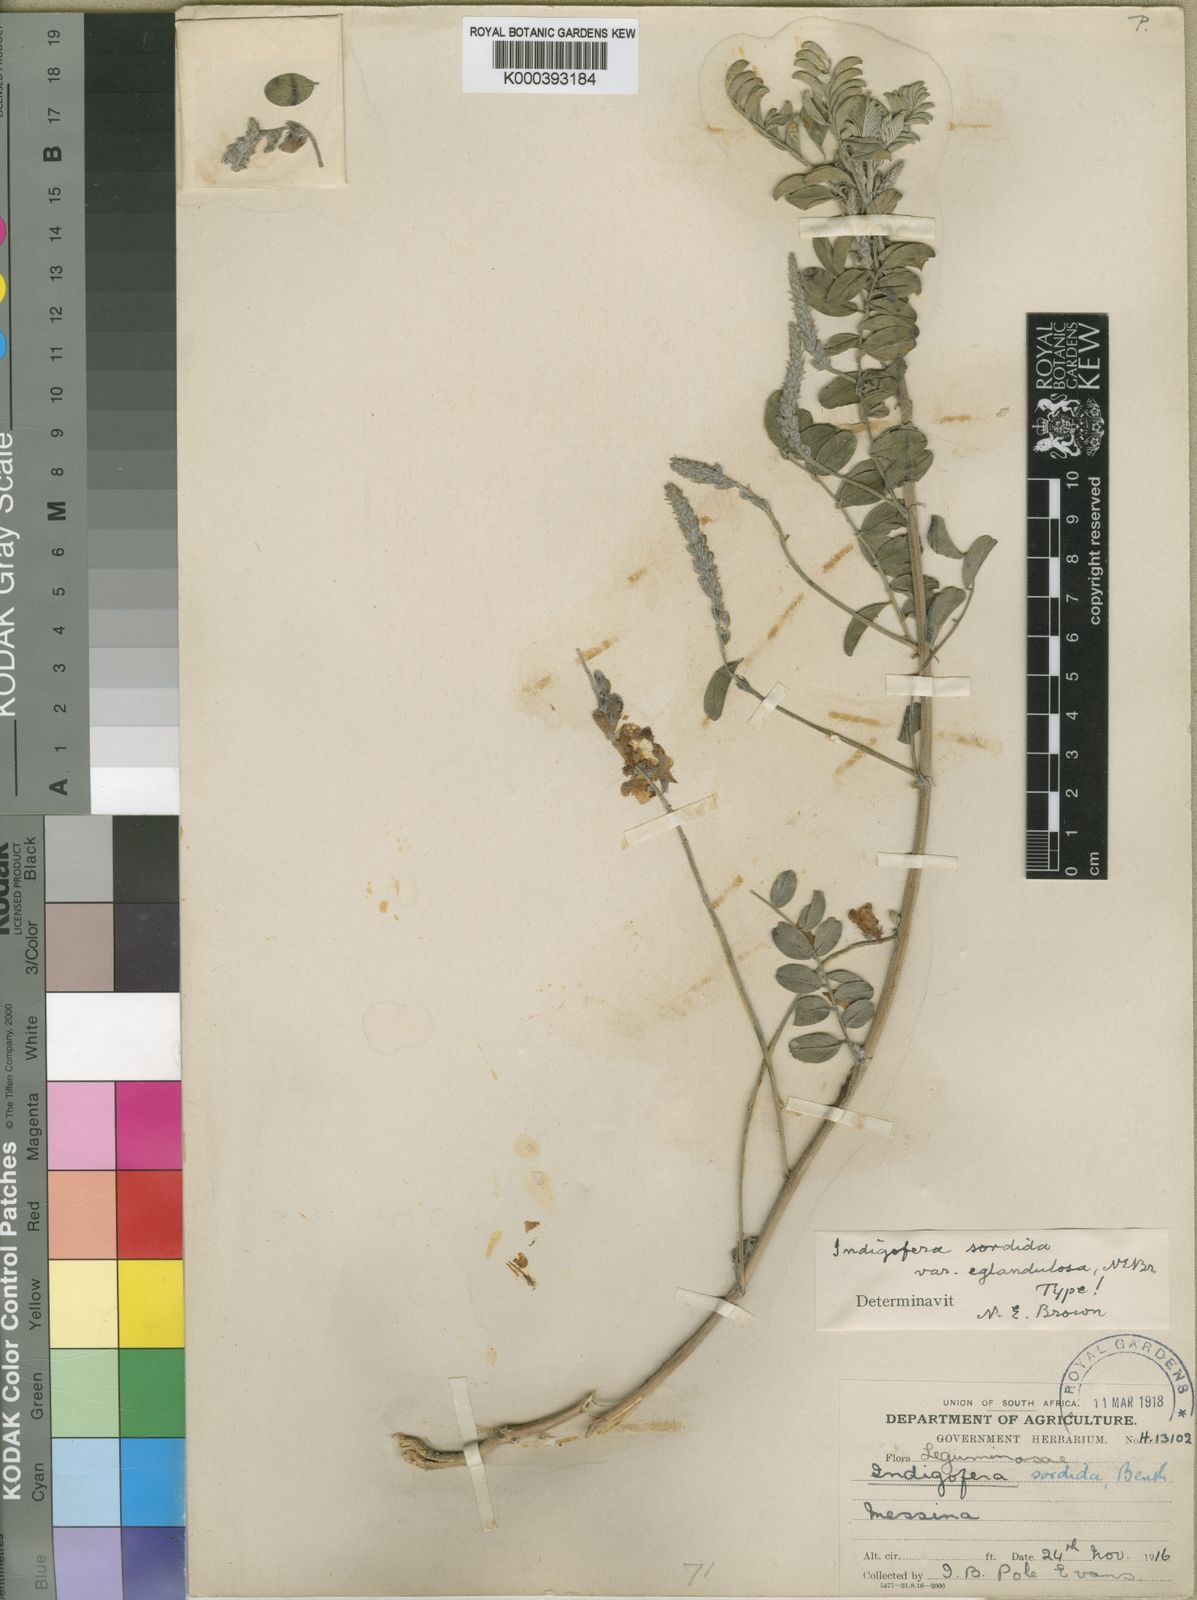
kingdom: Plantae
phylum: Tracheophyta
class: Magnoliopsida
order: Fabales
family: Fabaceae
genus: Indigofera
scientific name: Indigofera sordida
